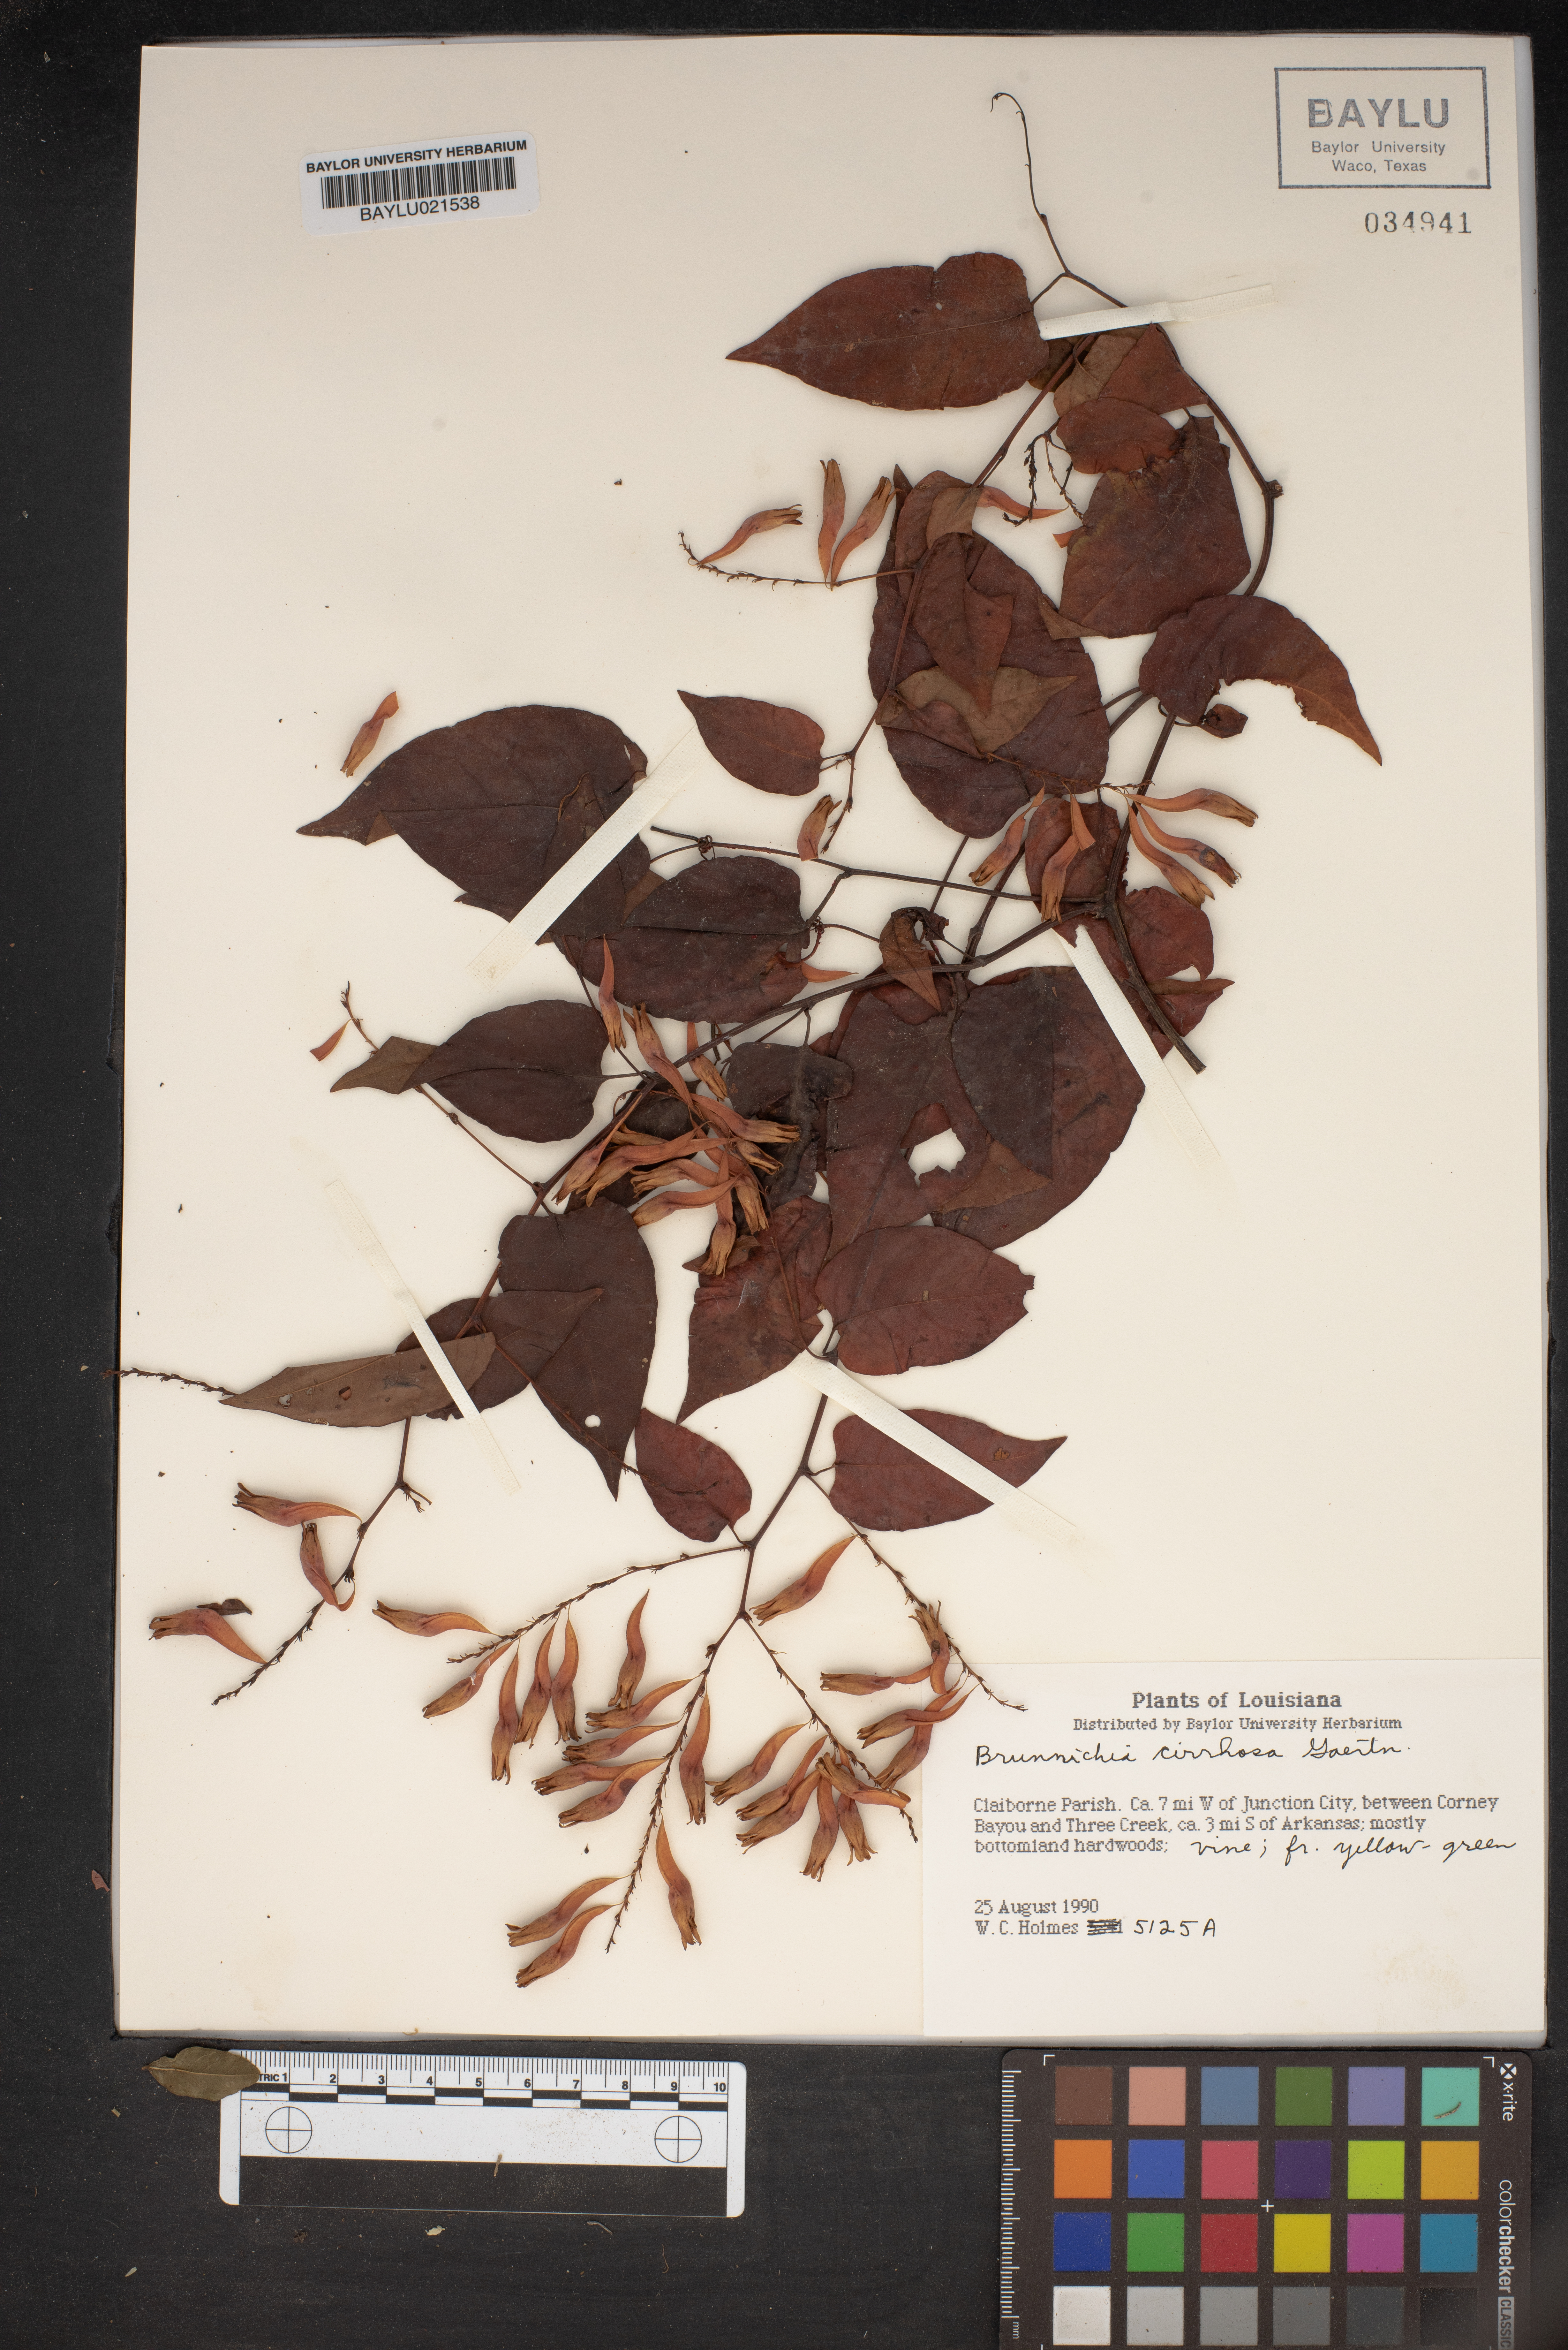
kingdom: Plantae
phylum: Tracheophyta
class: Magnoliopsida
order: Caryophyllales
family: Polygonaceae
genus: Brunnichia
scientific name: Brunnichia ovata
